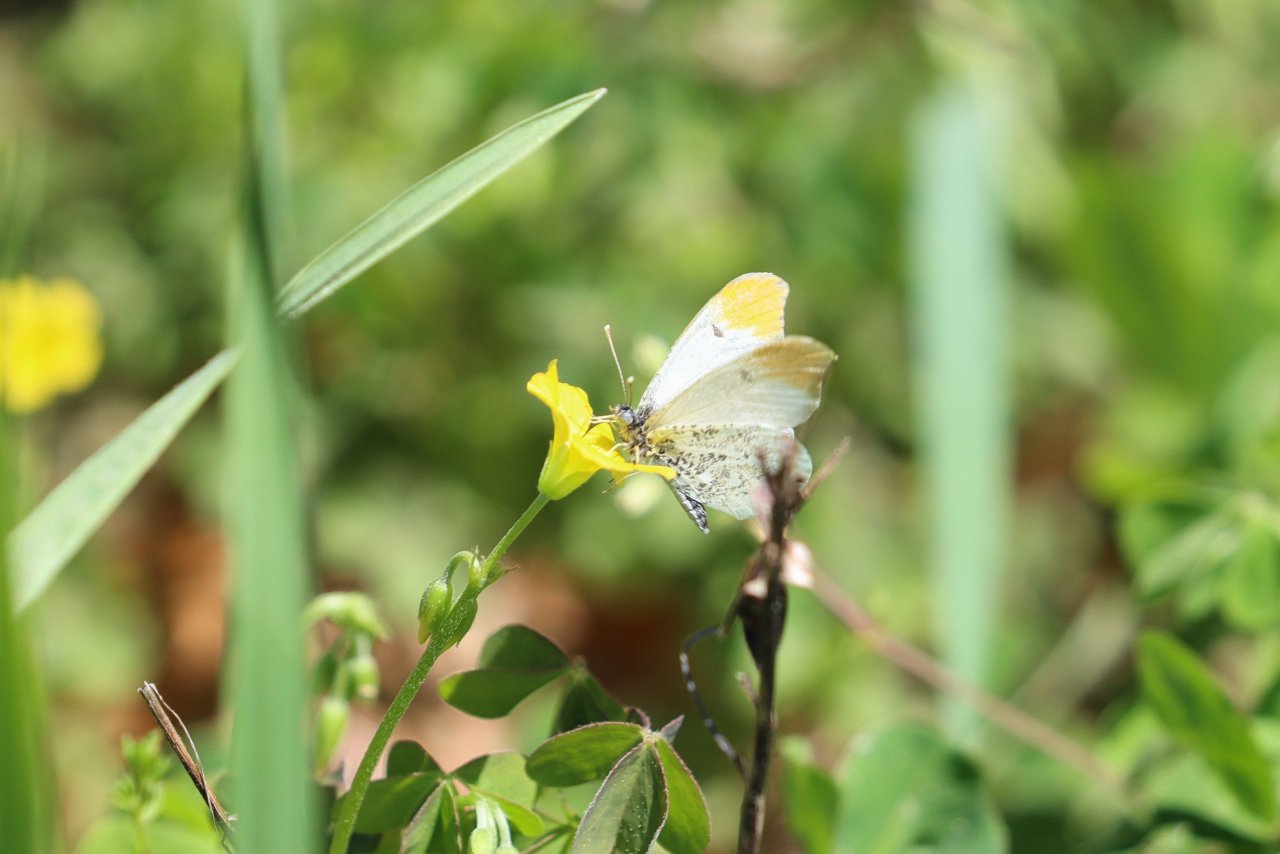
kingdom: Animalia
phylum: Arthropoda
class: Insecta
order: Lepidoptera
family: Pieridae
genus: Anthocharis
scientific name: Anthocharis midea
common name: Falcate Orangetip
